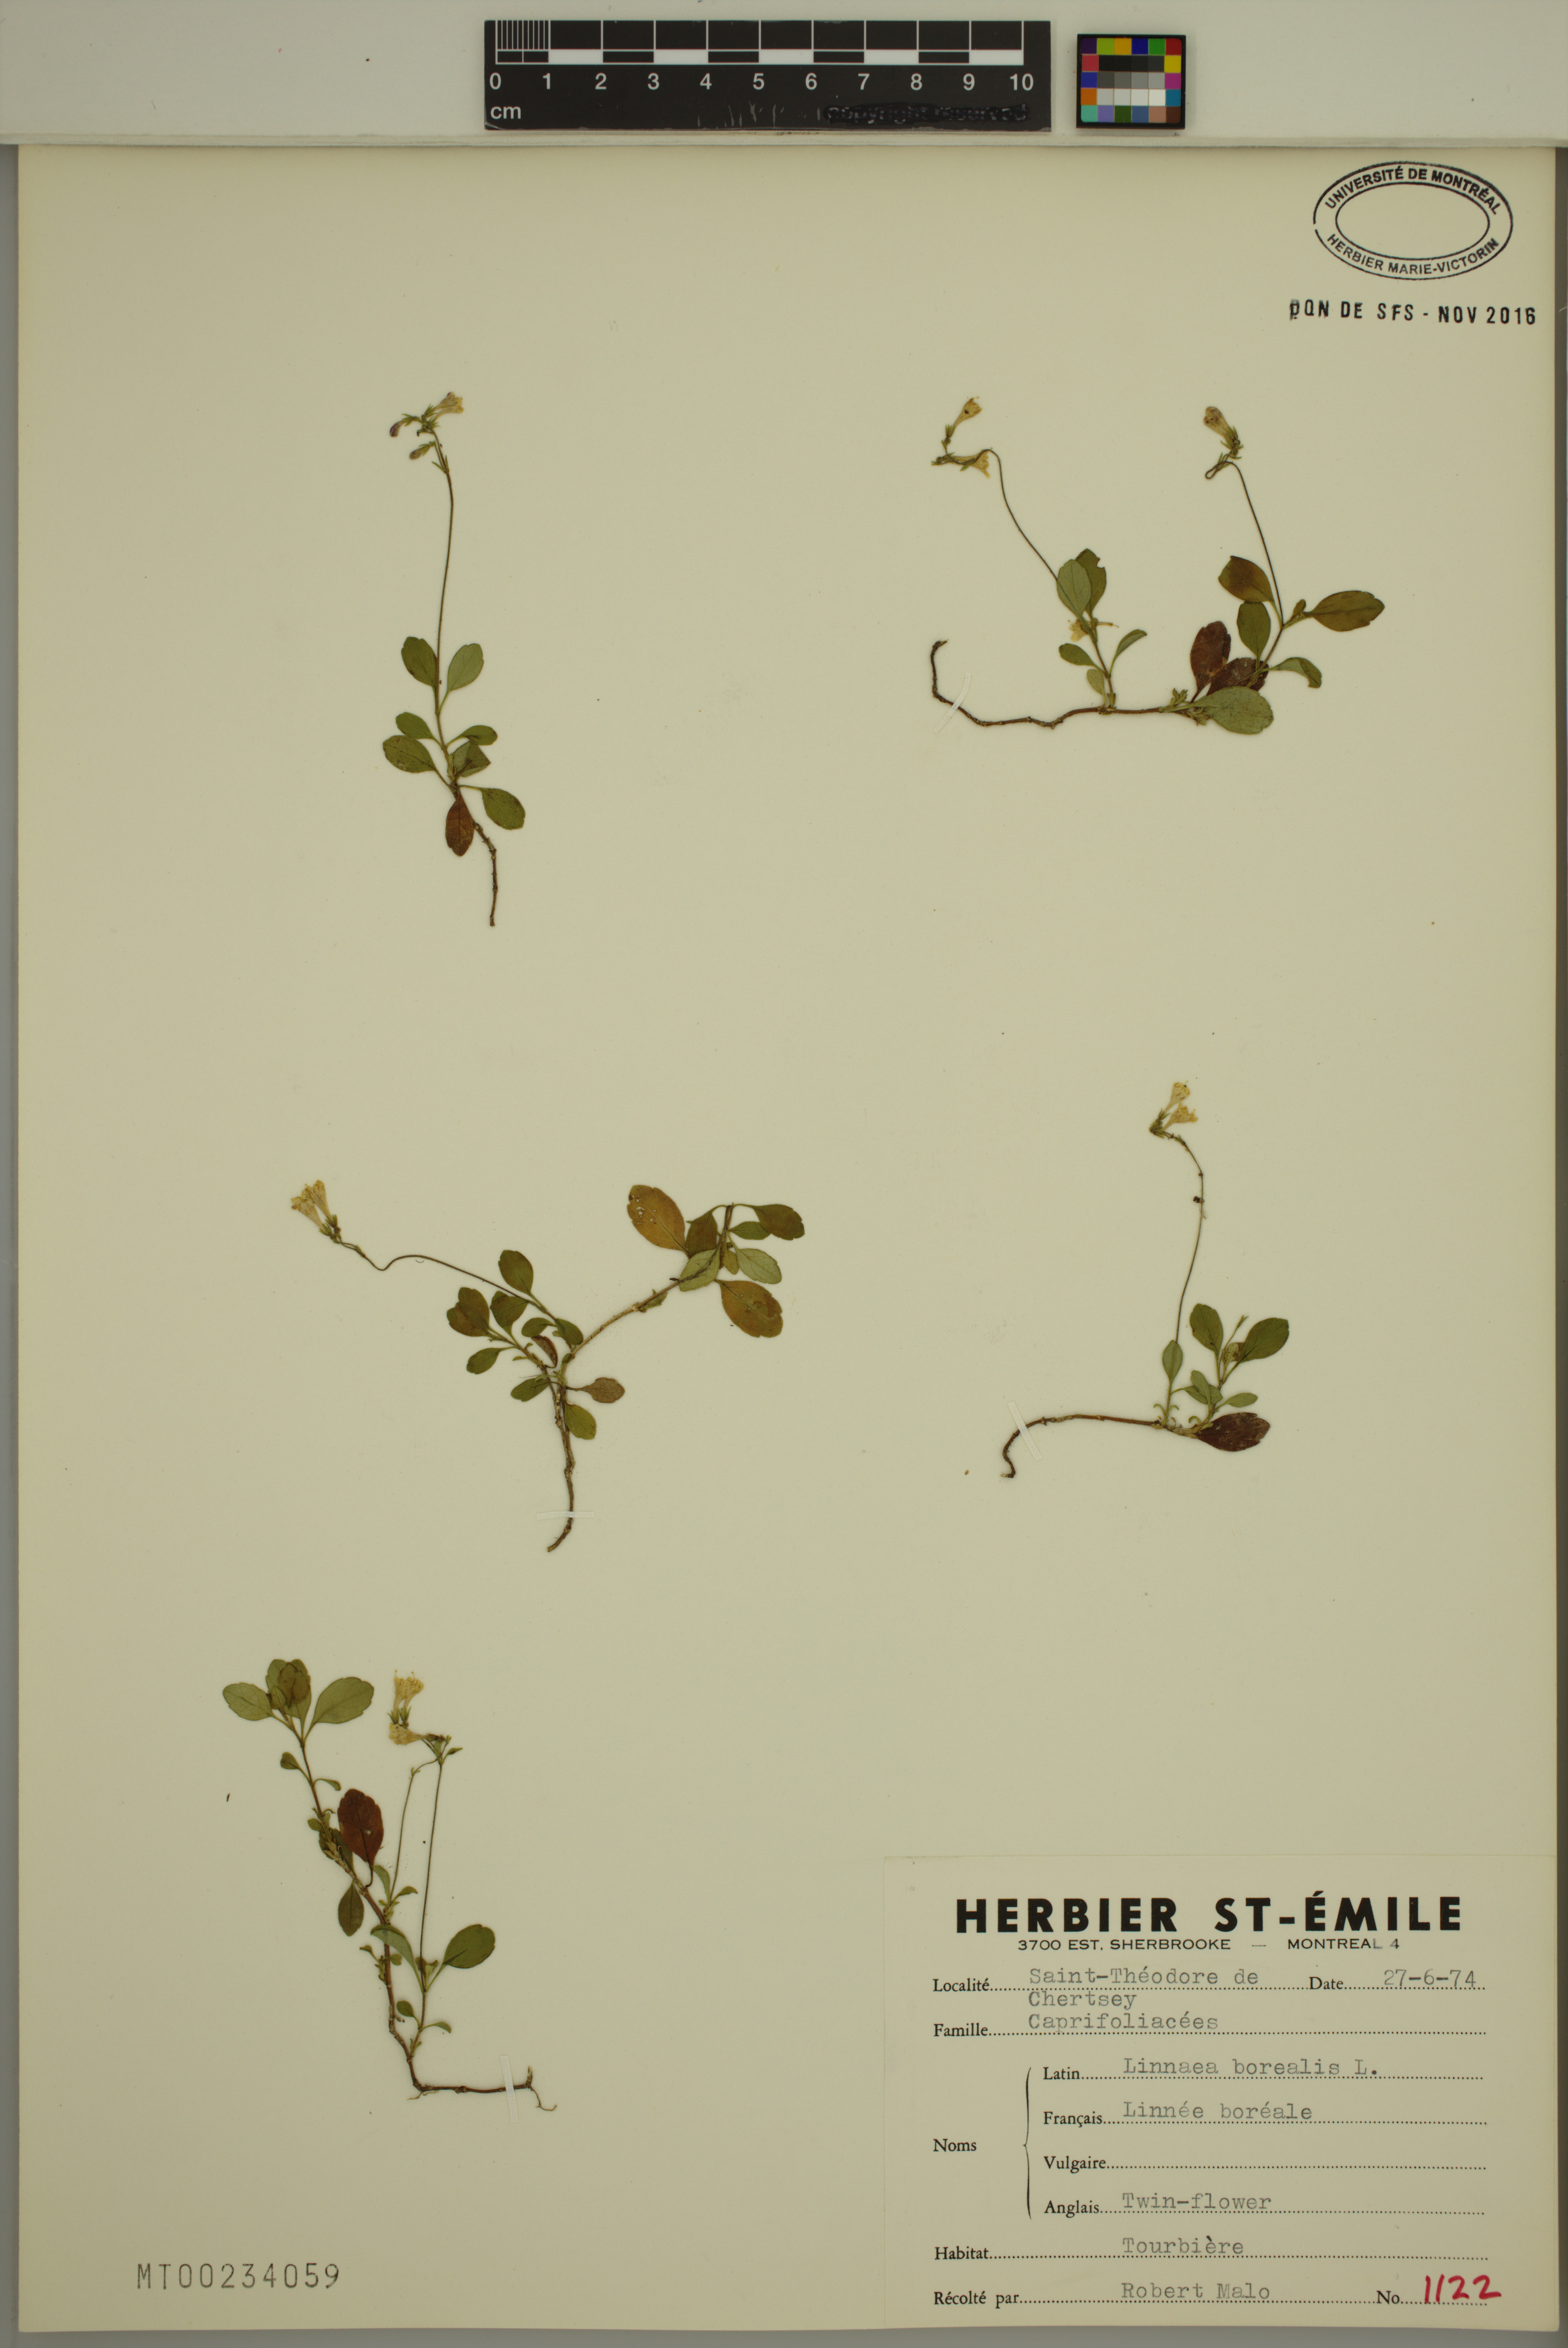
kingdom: Plantae
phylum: Tracheophyta
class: Magnoliopsida
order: Dipsacales
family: Caprifoliaceae
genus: Linnaea
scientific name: Linnaea borealis
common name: Twinflower
